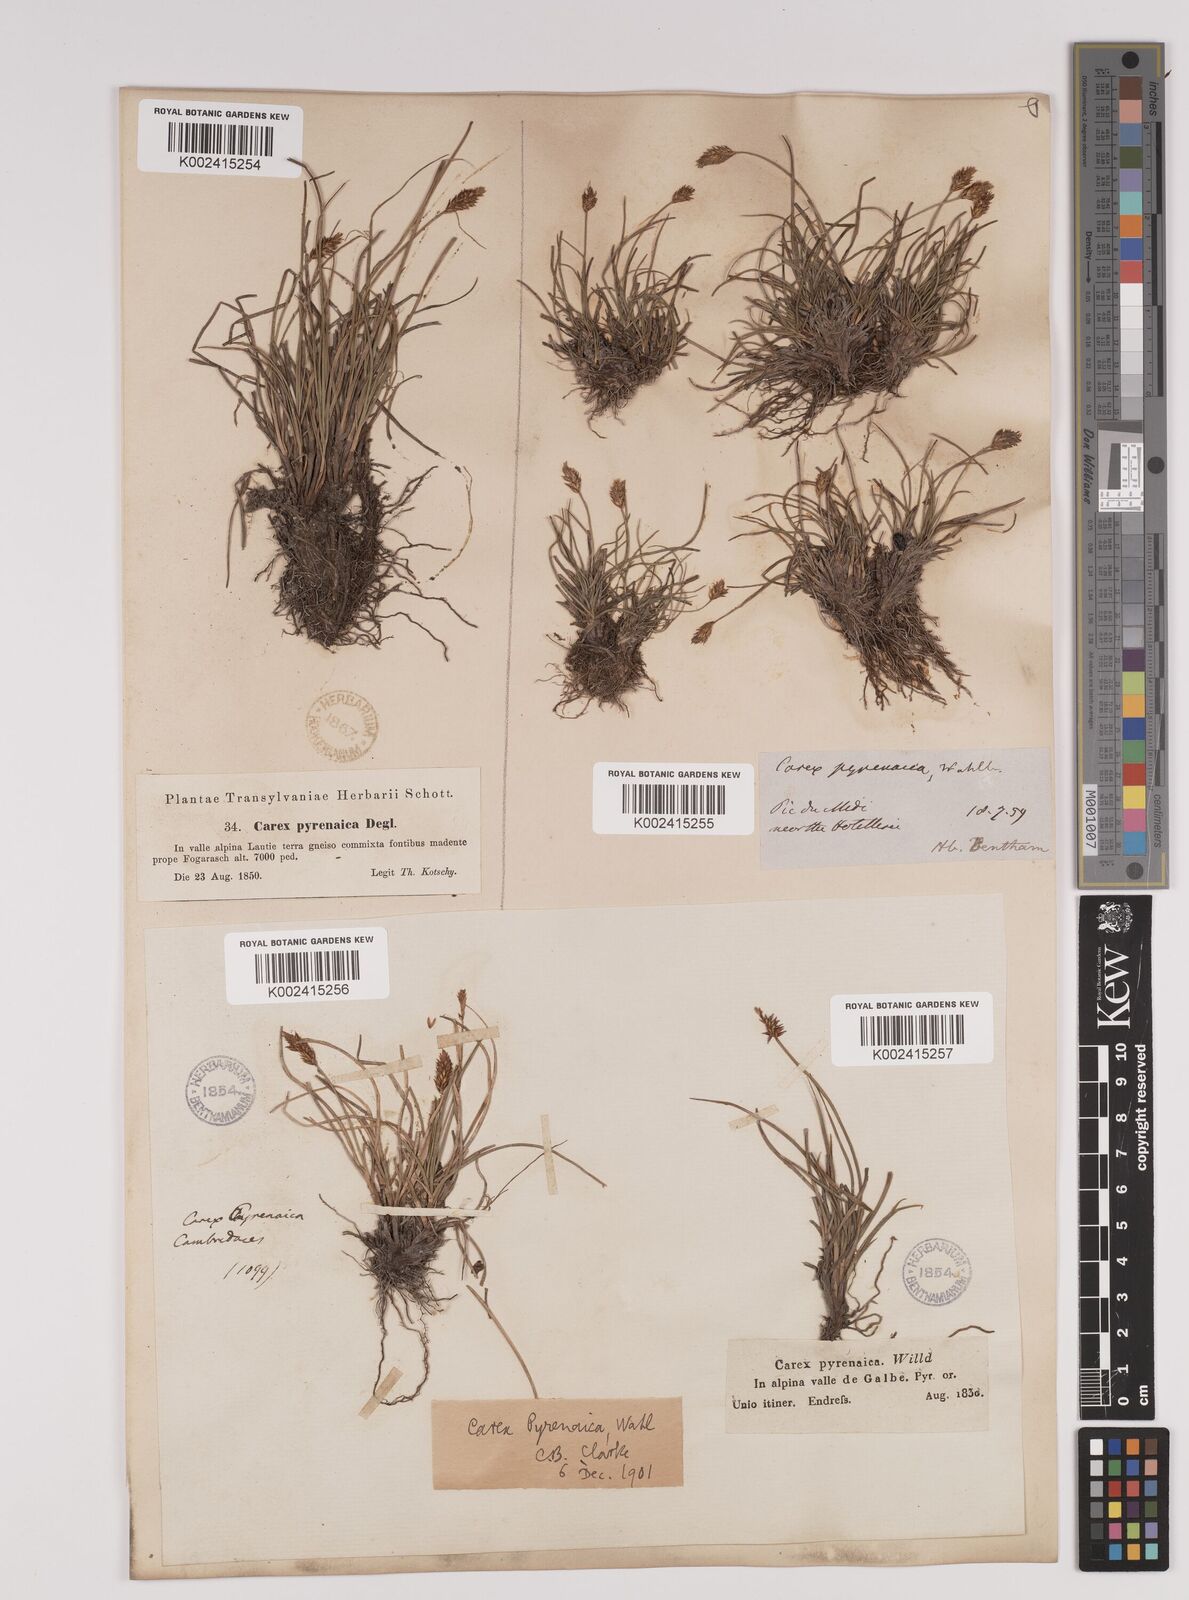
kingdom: Plantae
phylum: Tracheophyta
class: Liliopsida
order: Poales
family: Cyperaceae
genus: Carex
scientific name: Carex acicularis
